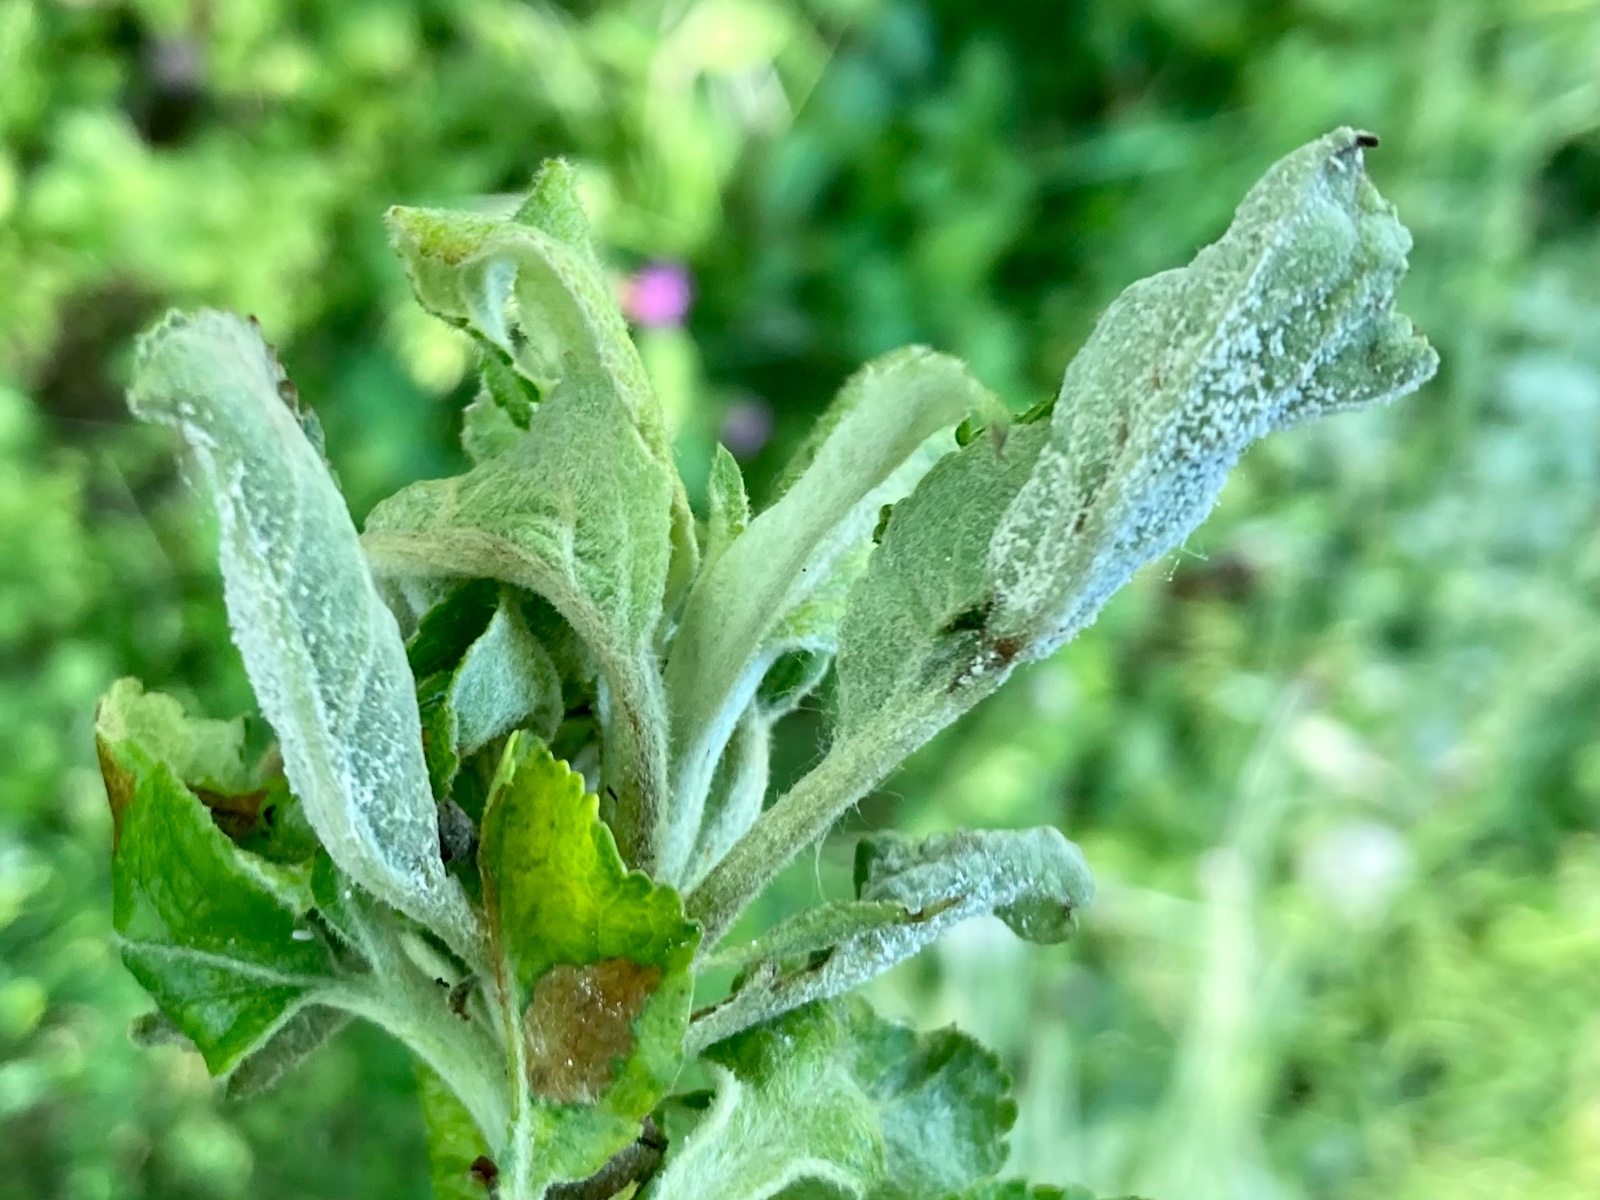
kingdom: Fungi
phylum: Ascomycota
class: Leotiomycetes
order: Helotiales
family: Erysiphaceae
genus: Podosphaera
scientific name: Podosphaera leucotricha
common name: æble-meldug
